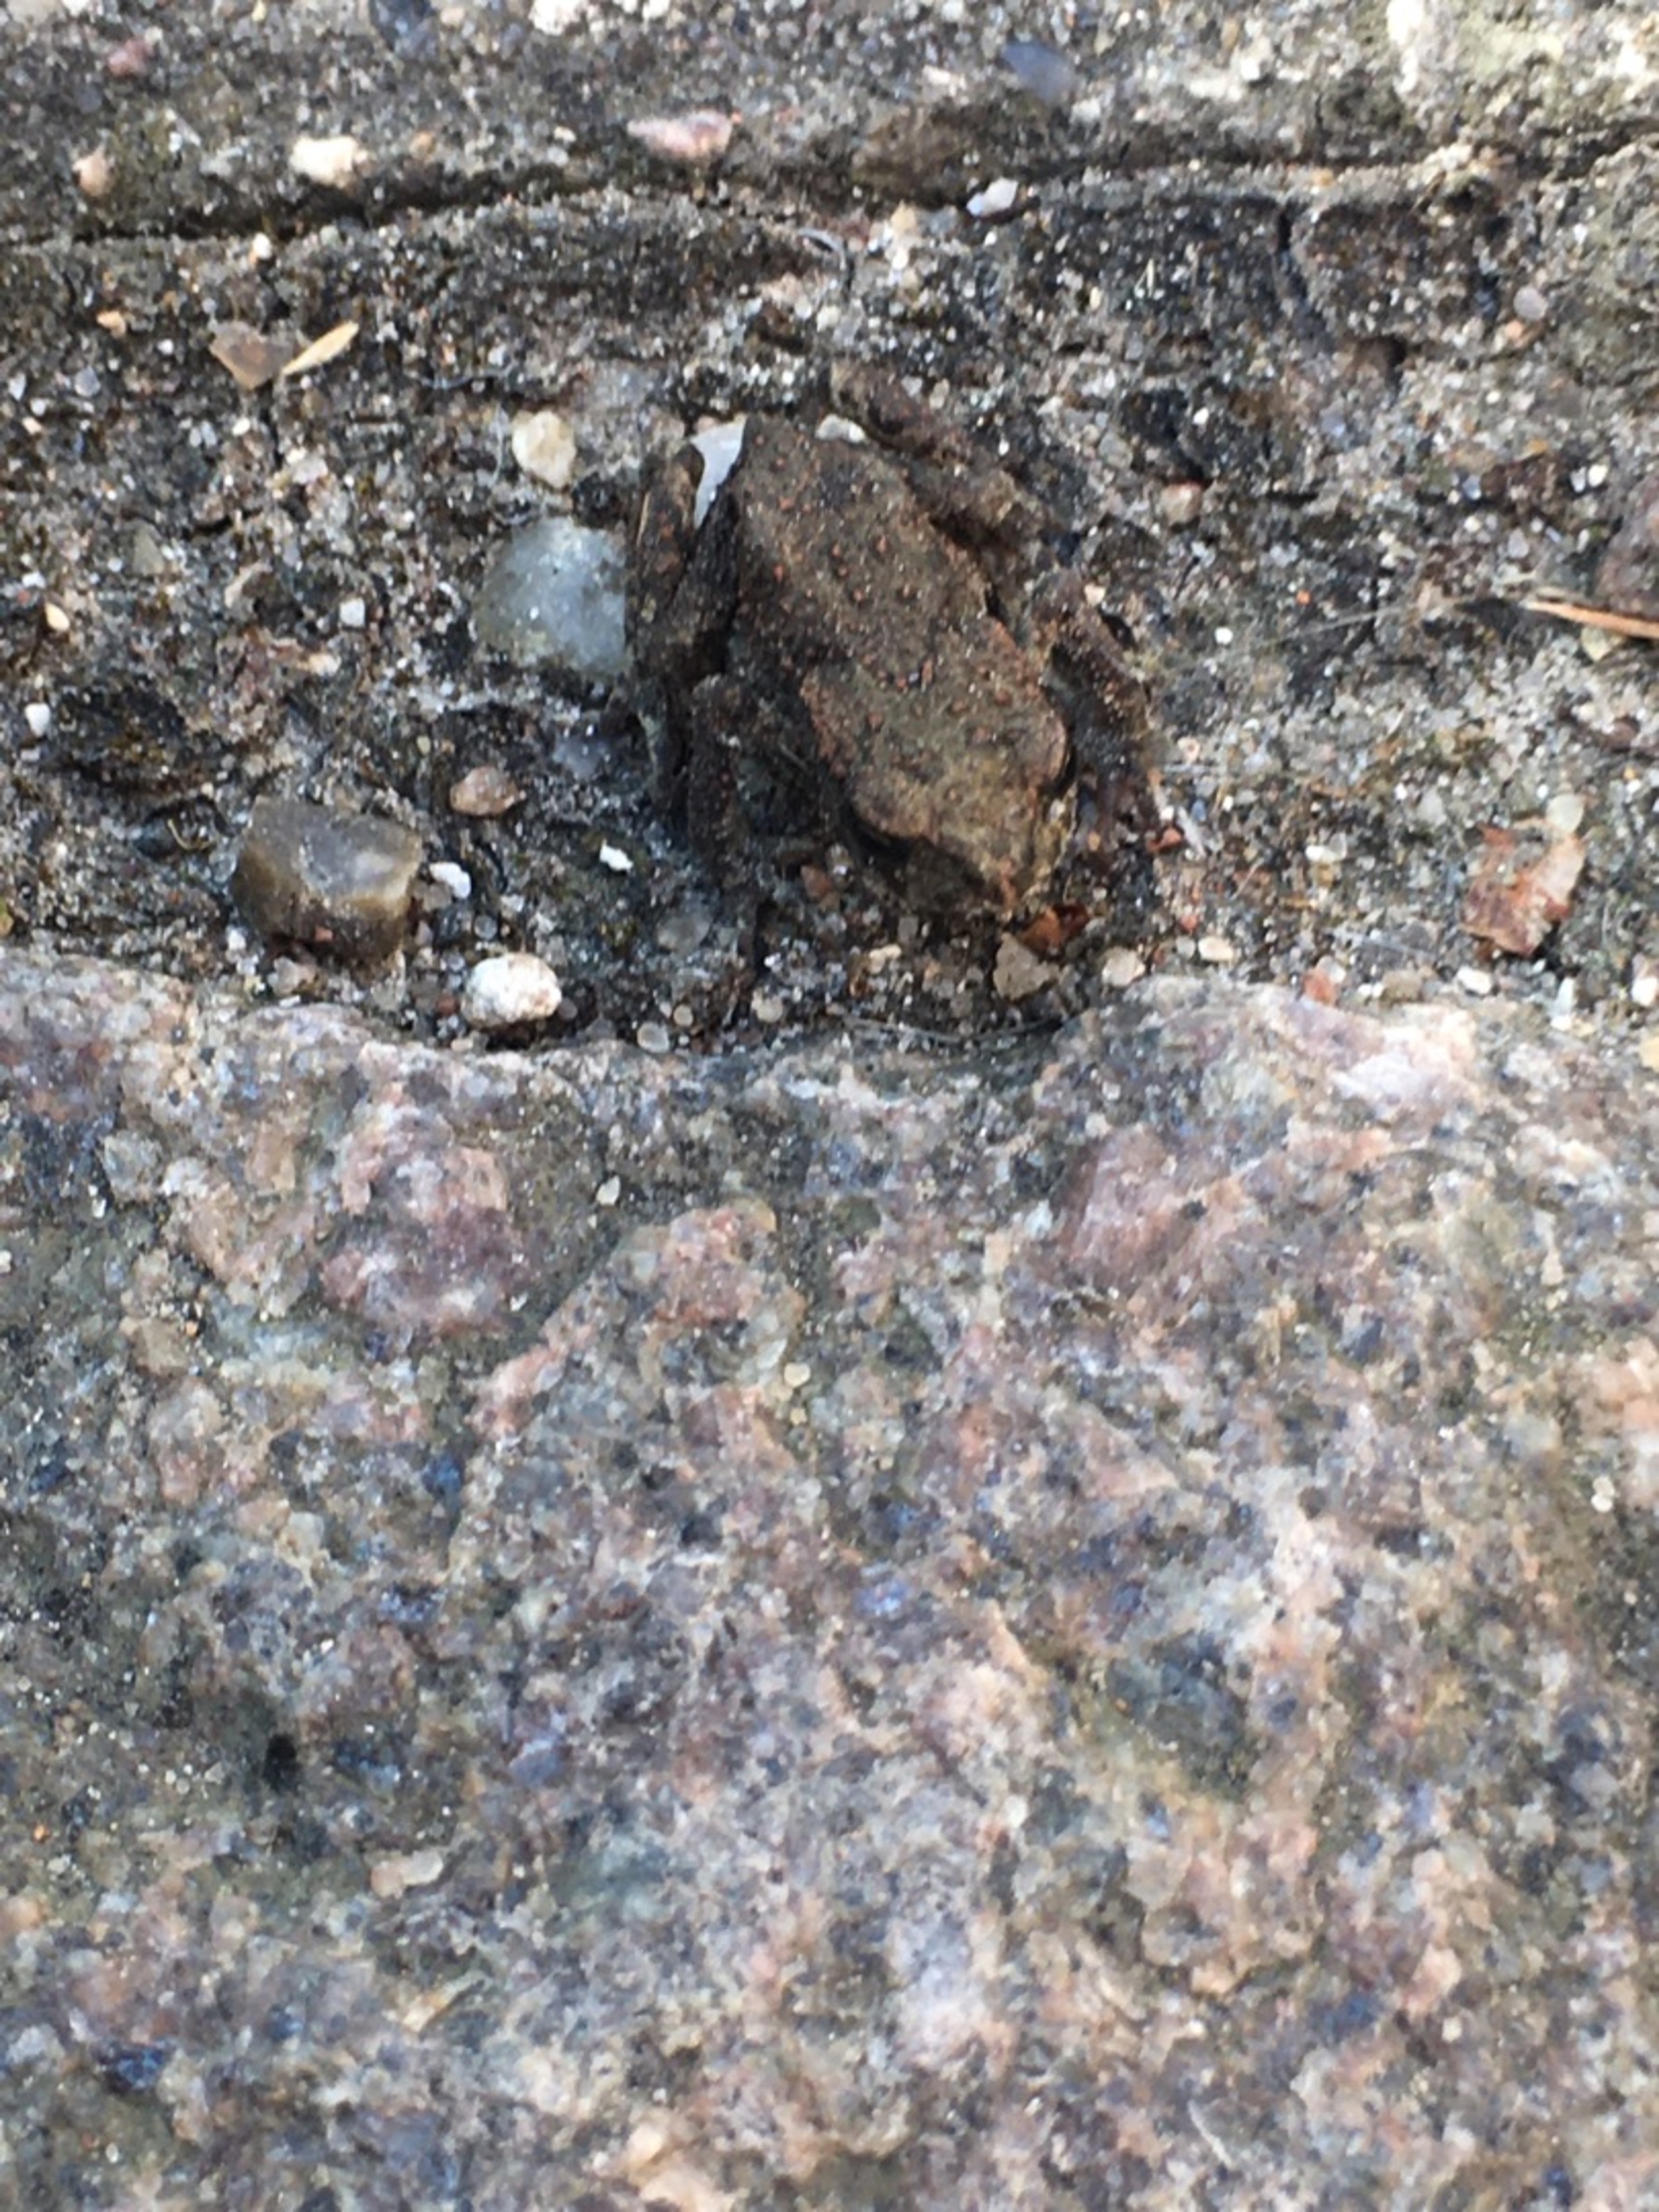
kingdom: Animalia
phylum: Chordata
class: Amphibia
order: Anura
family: Bufonidae
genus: Bufo
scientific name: Bufo bufo
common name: Skrubtudse
